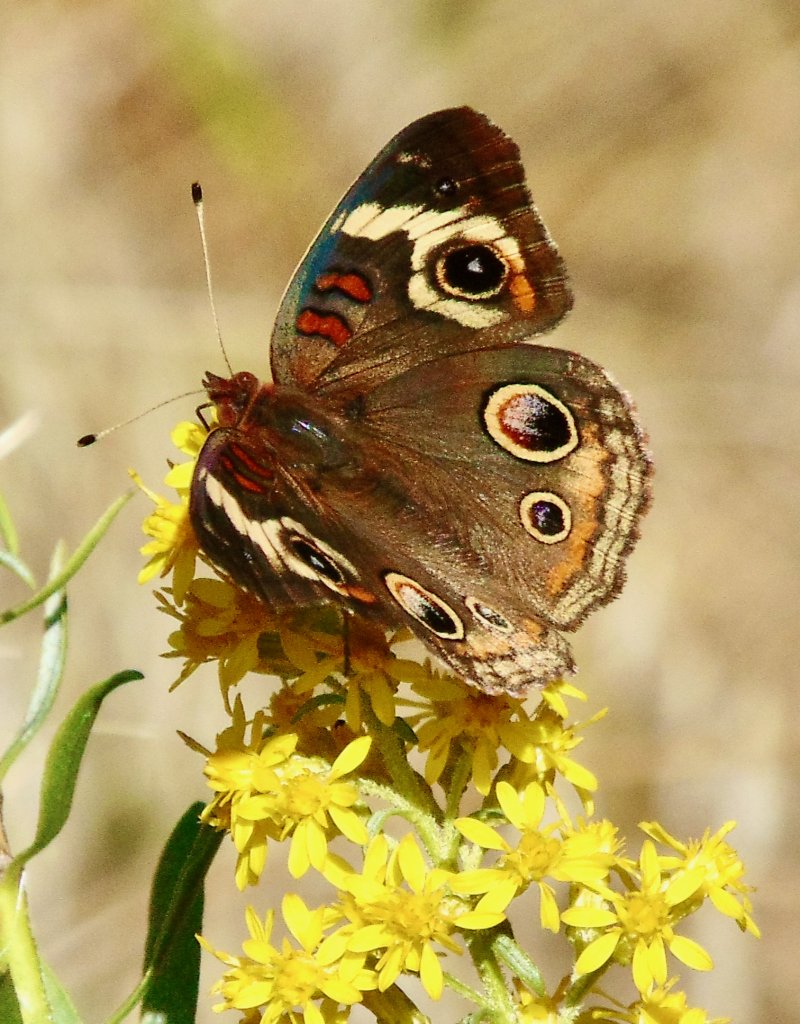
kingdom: Animalia
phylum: Arthropoda
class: Insecta
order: Lepidoptera
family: Nymphalidae
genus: Junonia
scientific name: Junonia coenia
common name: Common Buckeye
